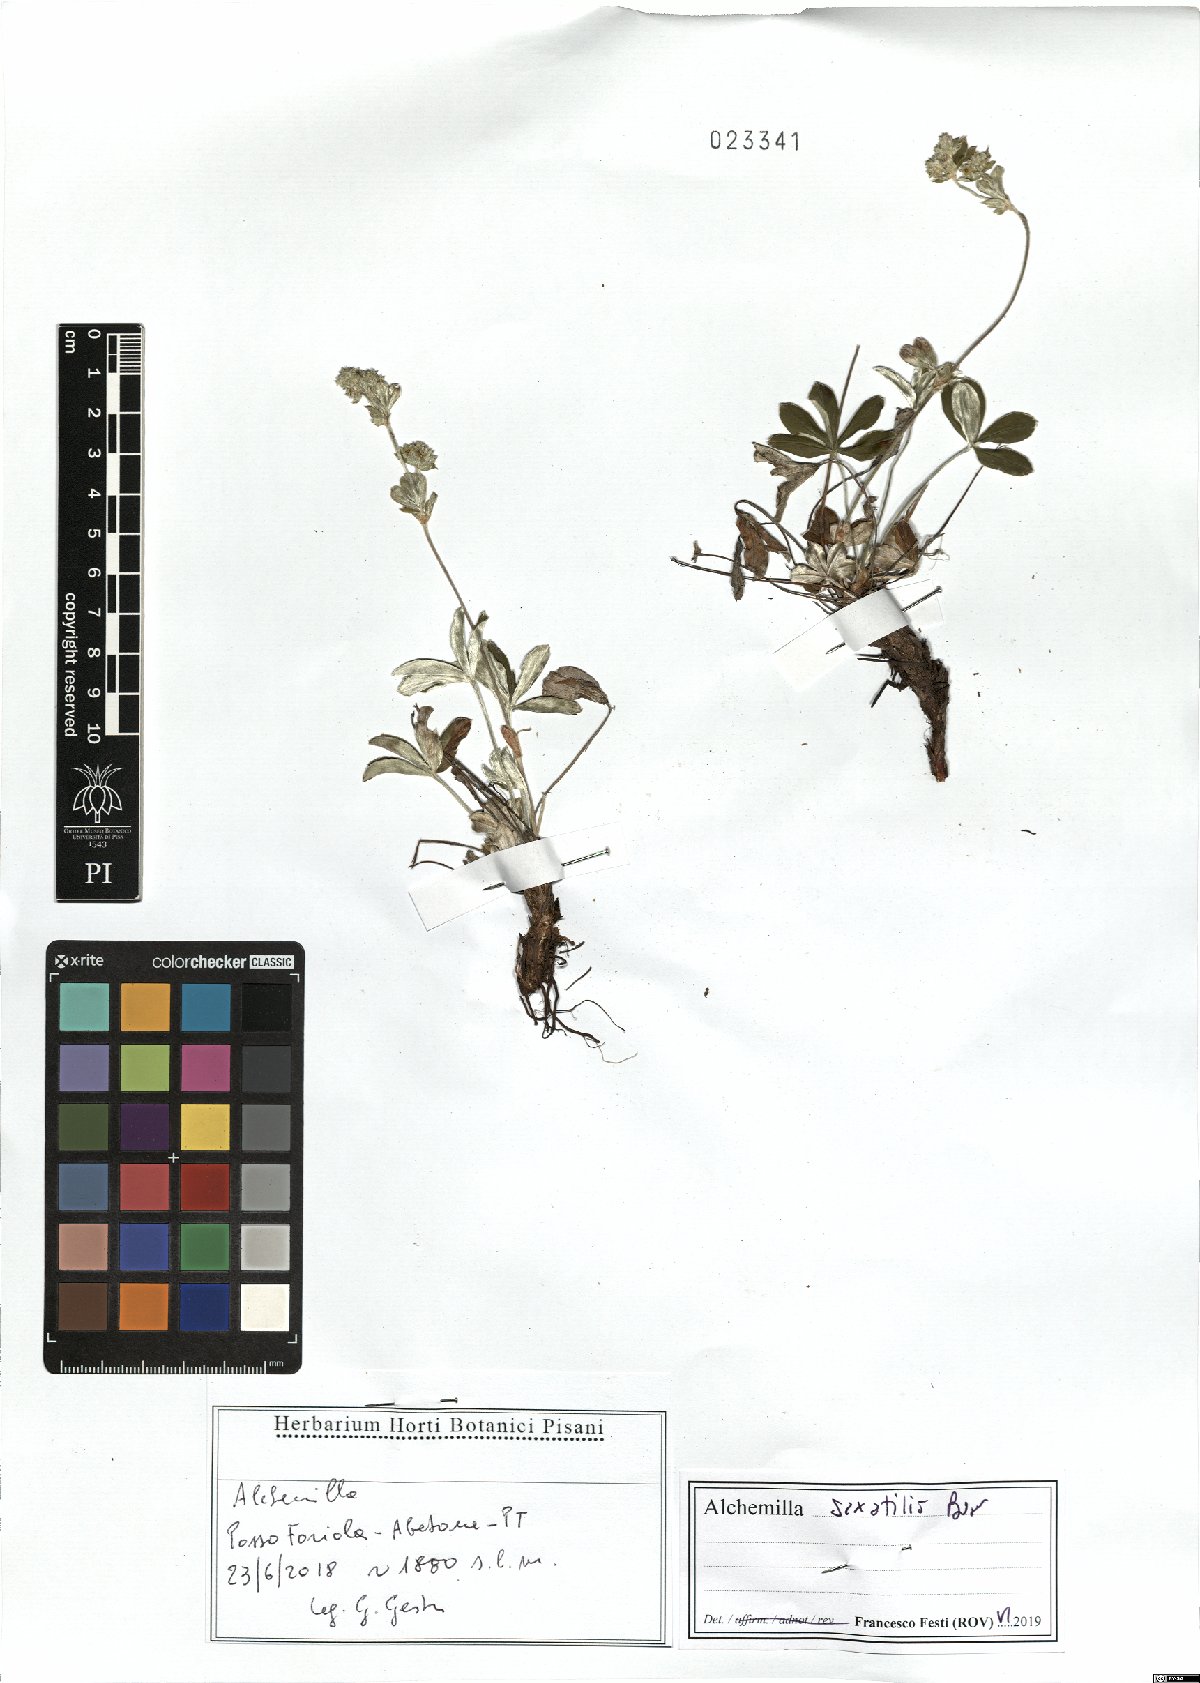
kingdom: Plantae
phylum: Tracheophyta
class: Magnoliopsida
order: Rosales
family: Rosaceae
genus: Alchemilla
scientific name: Alchemilla saxatilis
